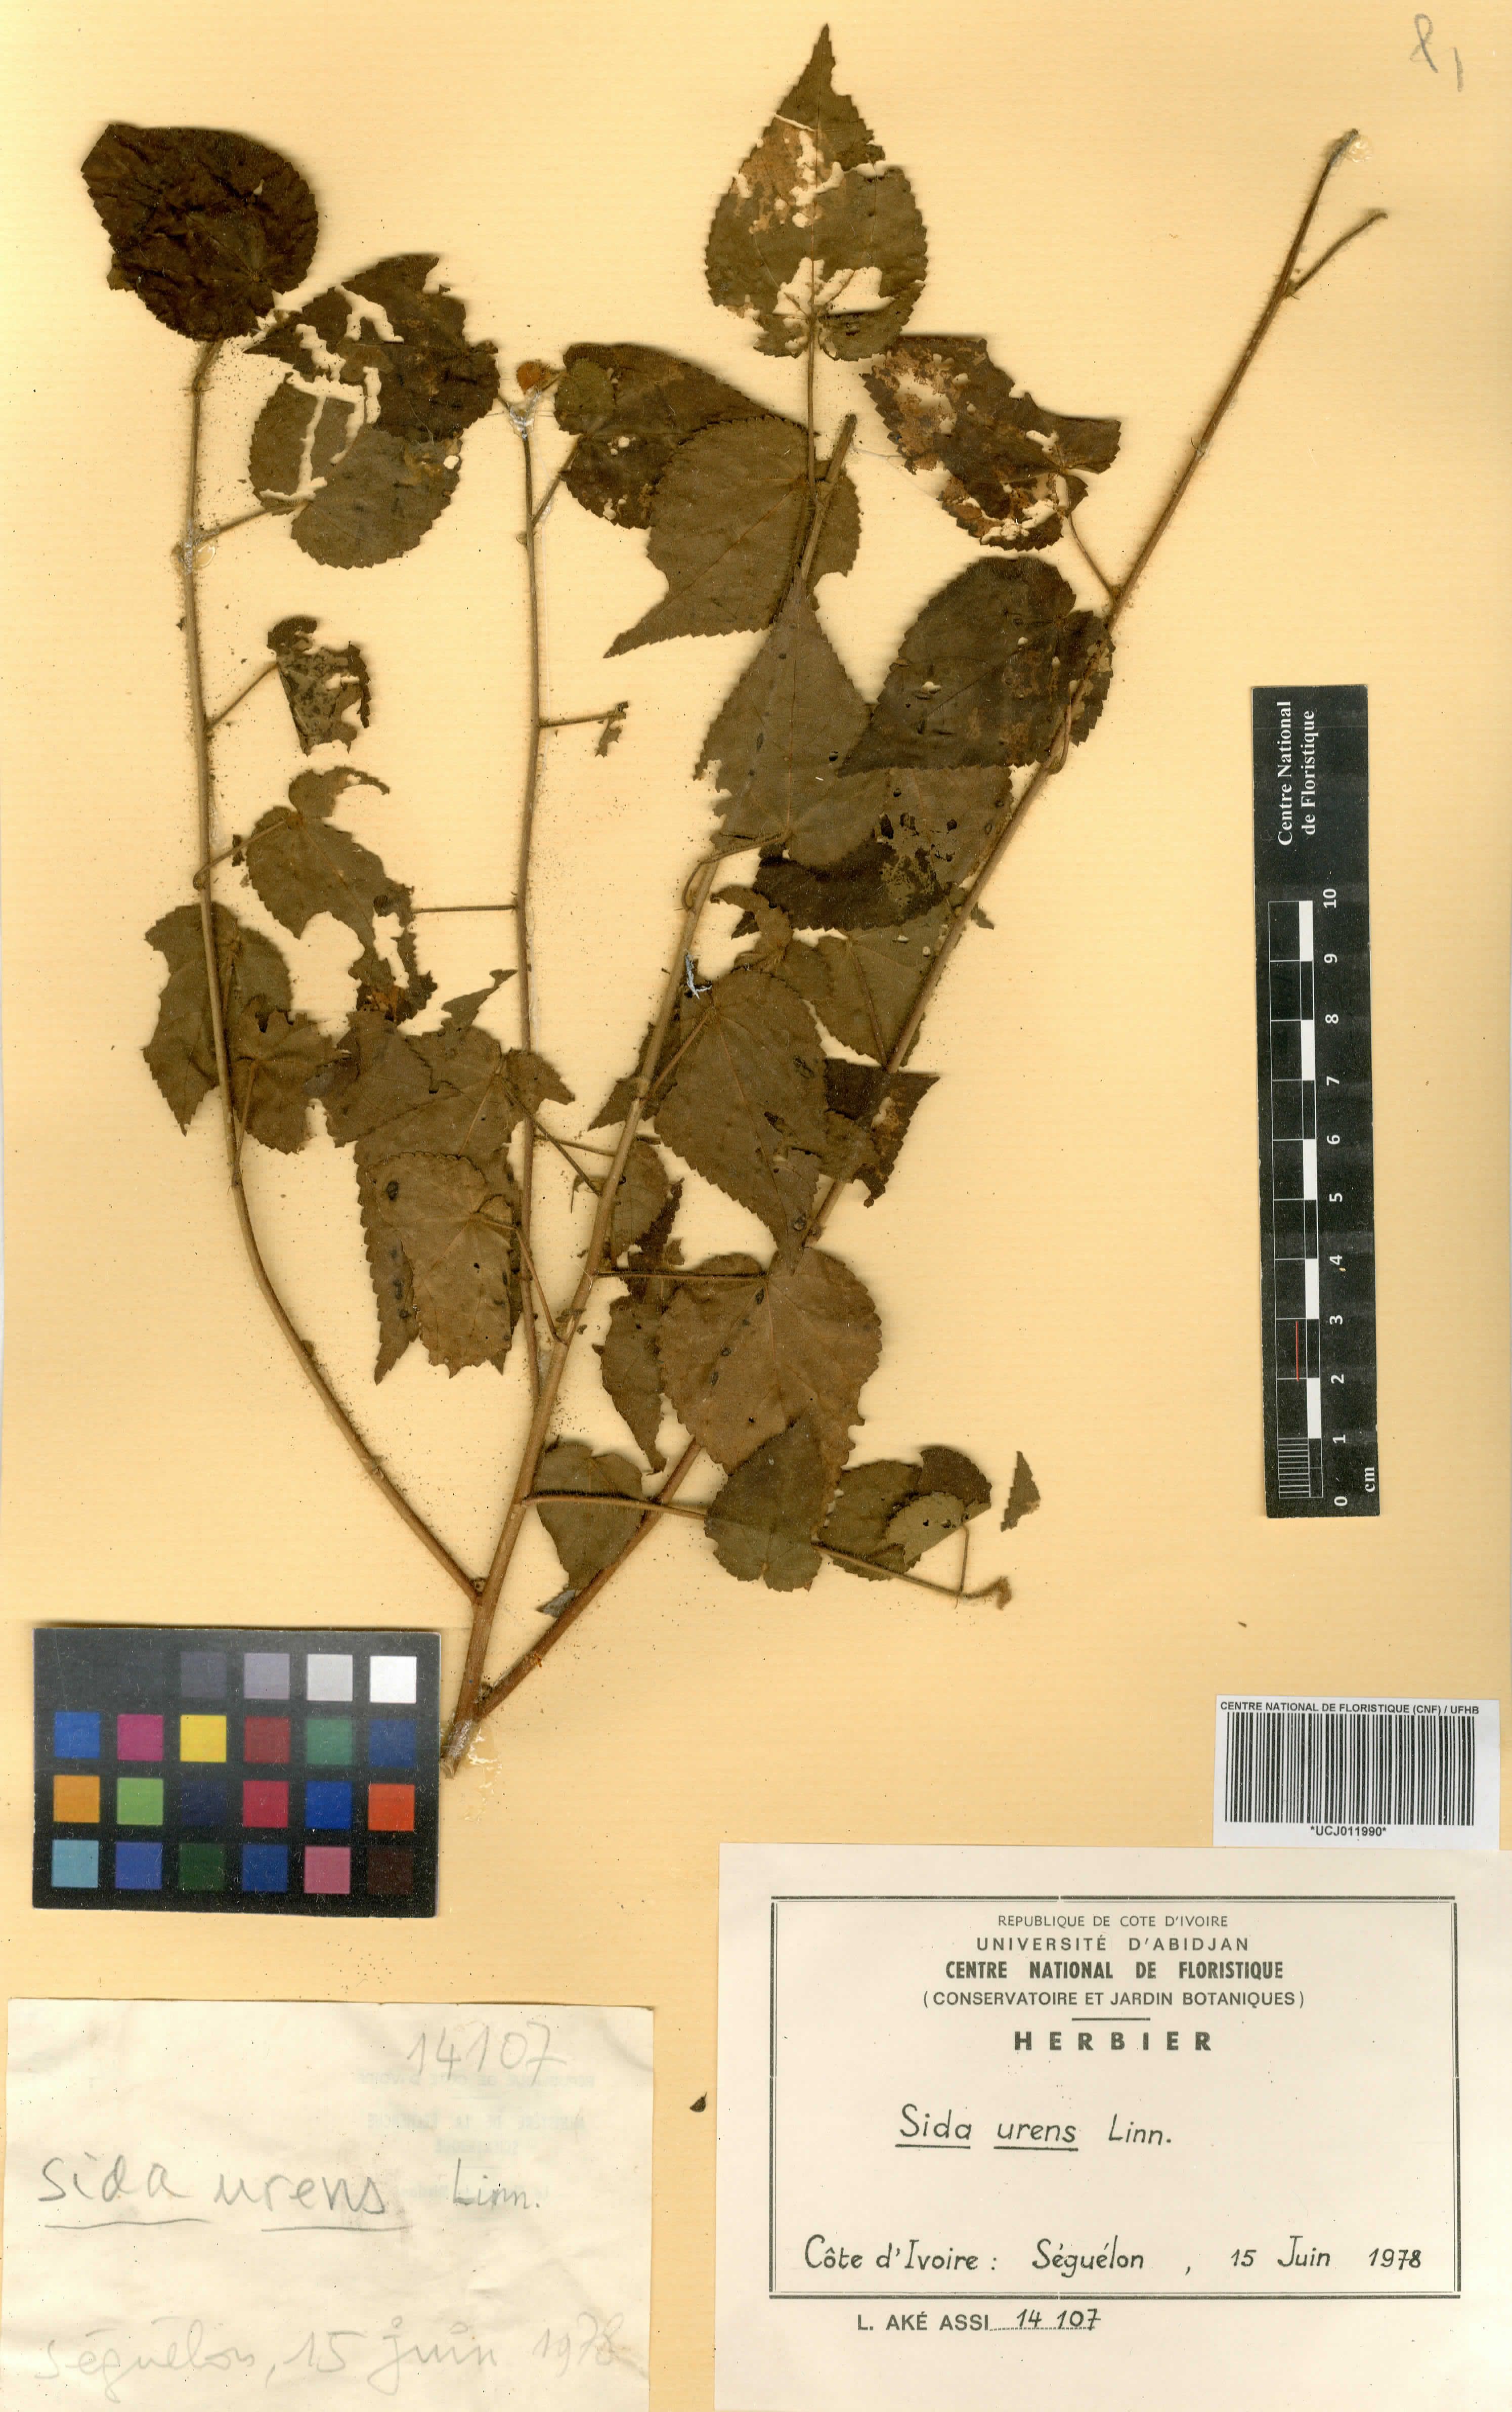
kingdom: Plantae
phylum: Tracheophyta
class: Magnoliopsida
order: Malvales
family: Malvaceae
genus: Sida
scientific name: Sida urens
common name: Tropical fanpetals
